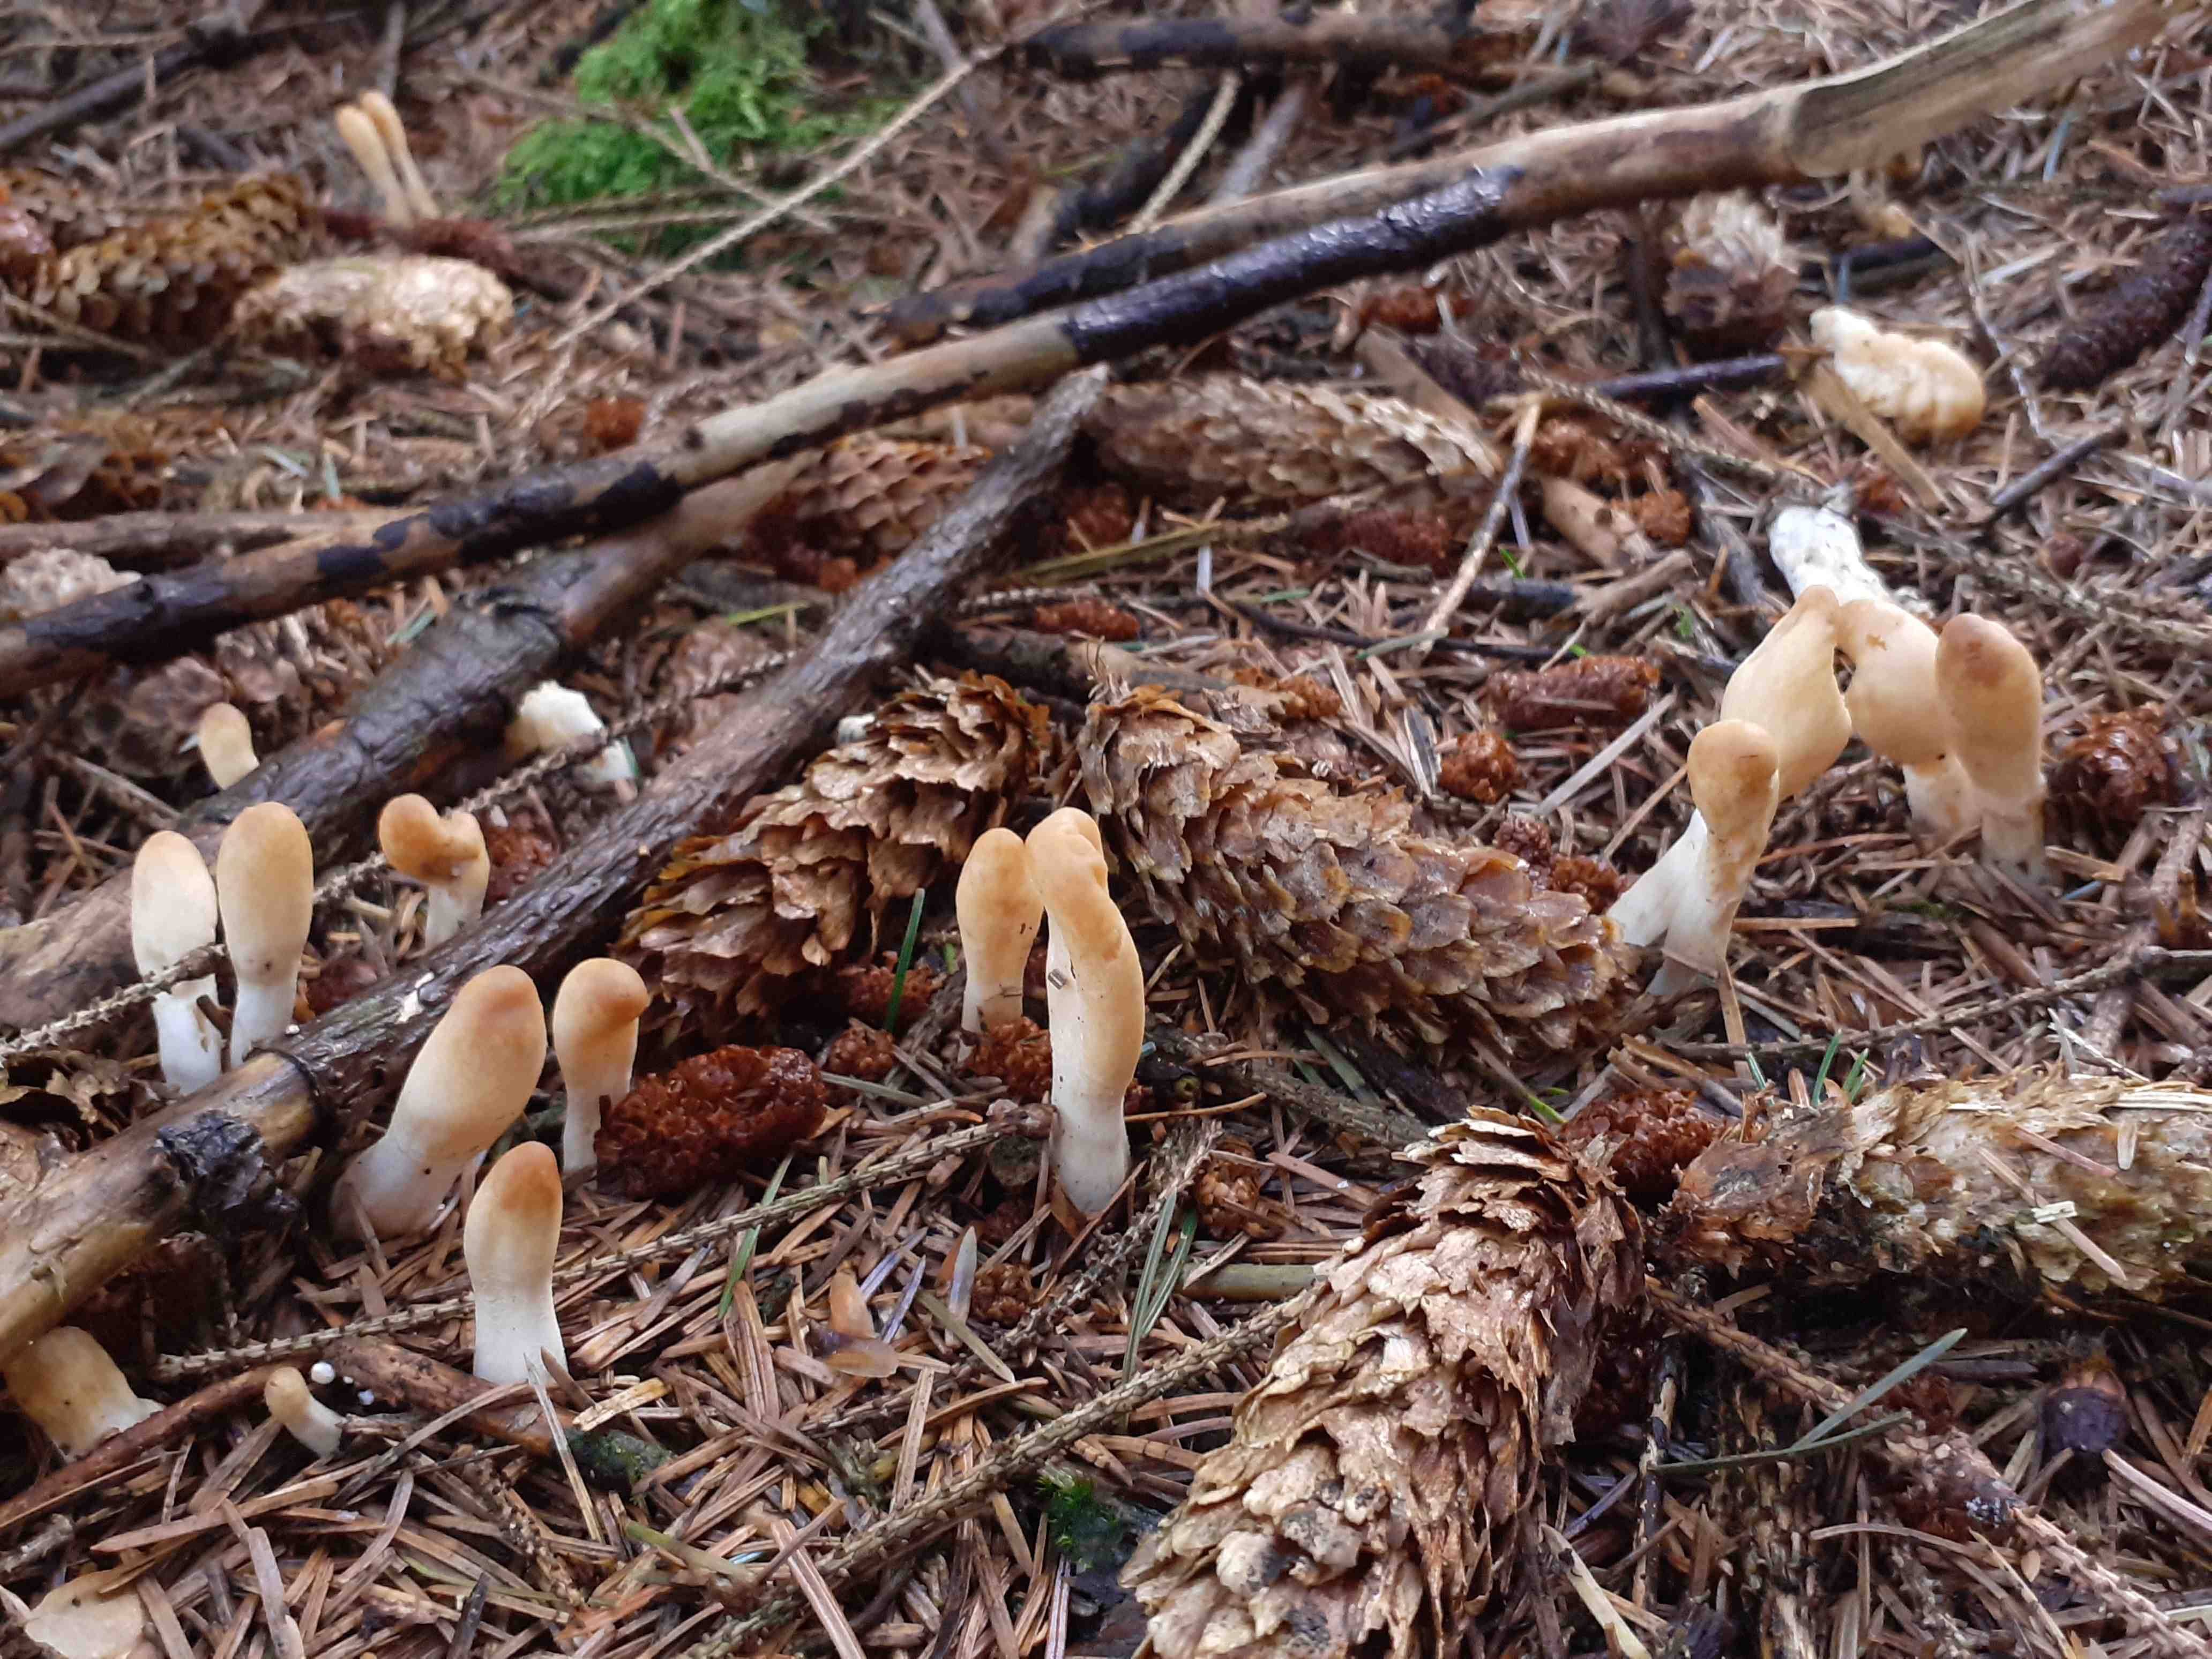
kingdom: Fungi
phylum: Ascomycota
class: Sordariomycetes
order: Hypocreales
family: Hypocreaceae
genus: Trichoderma
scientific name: Trichoderma leucopus
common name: lysstokket kødkerne
